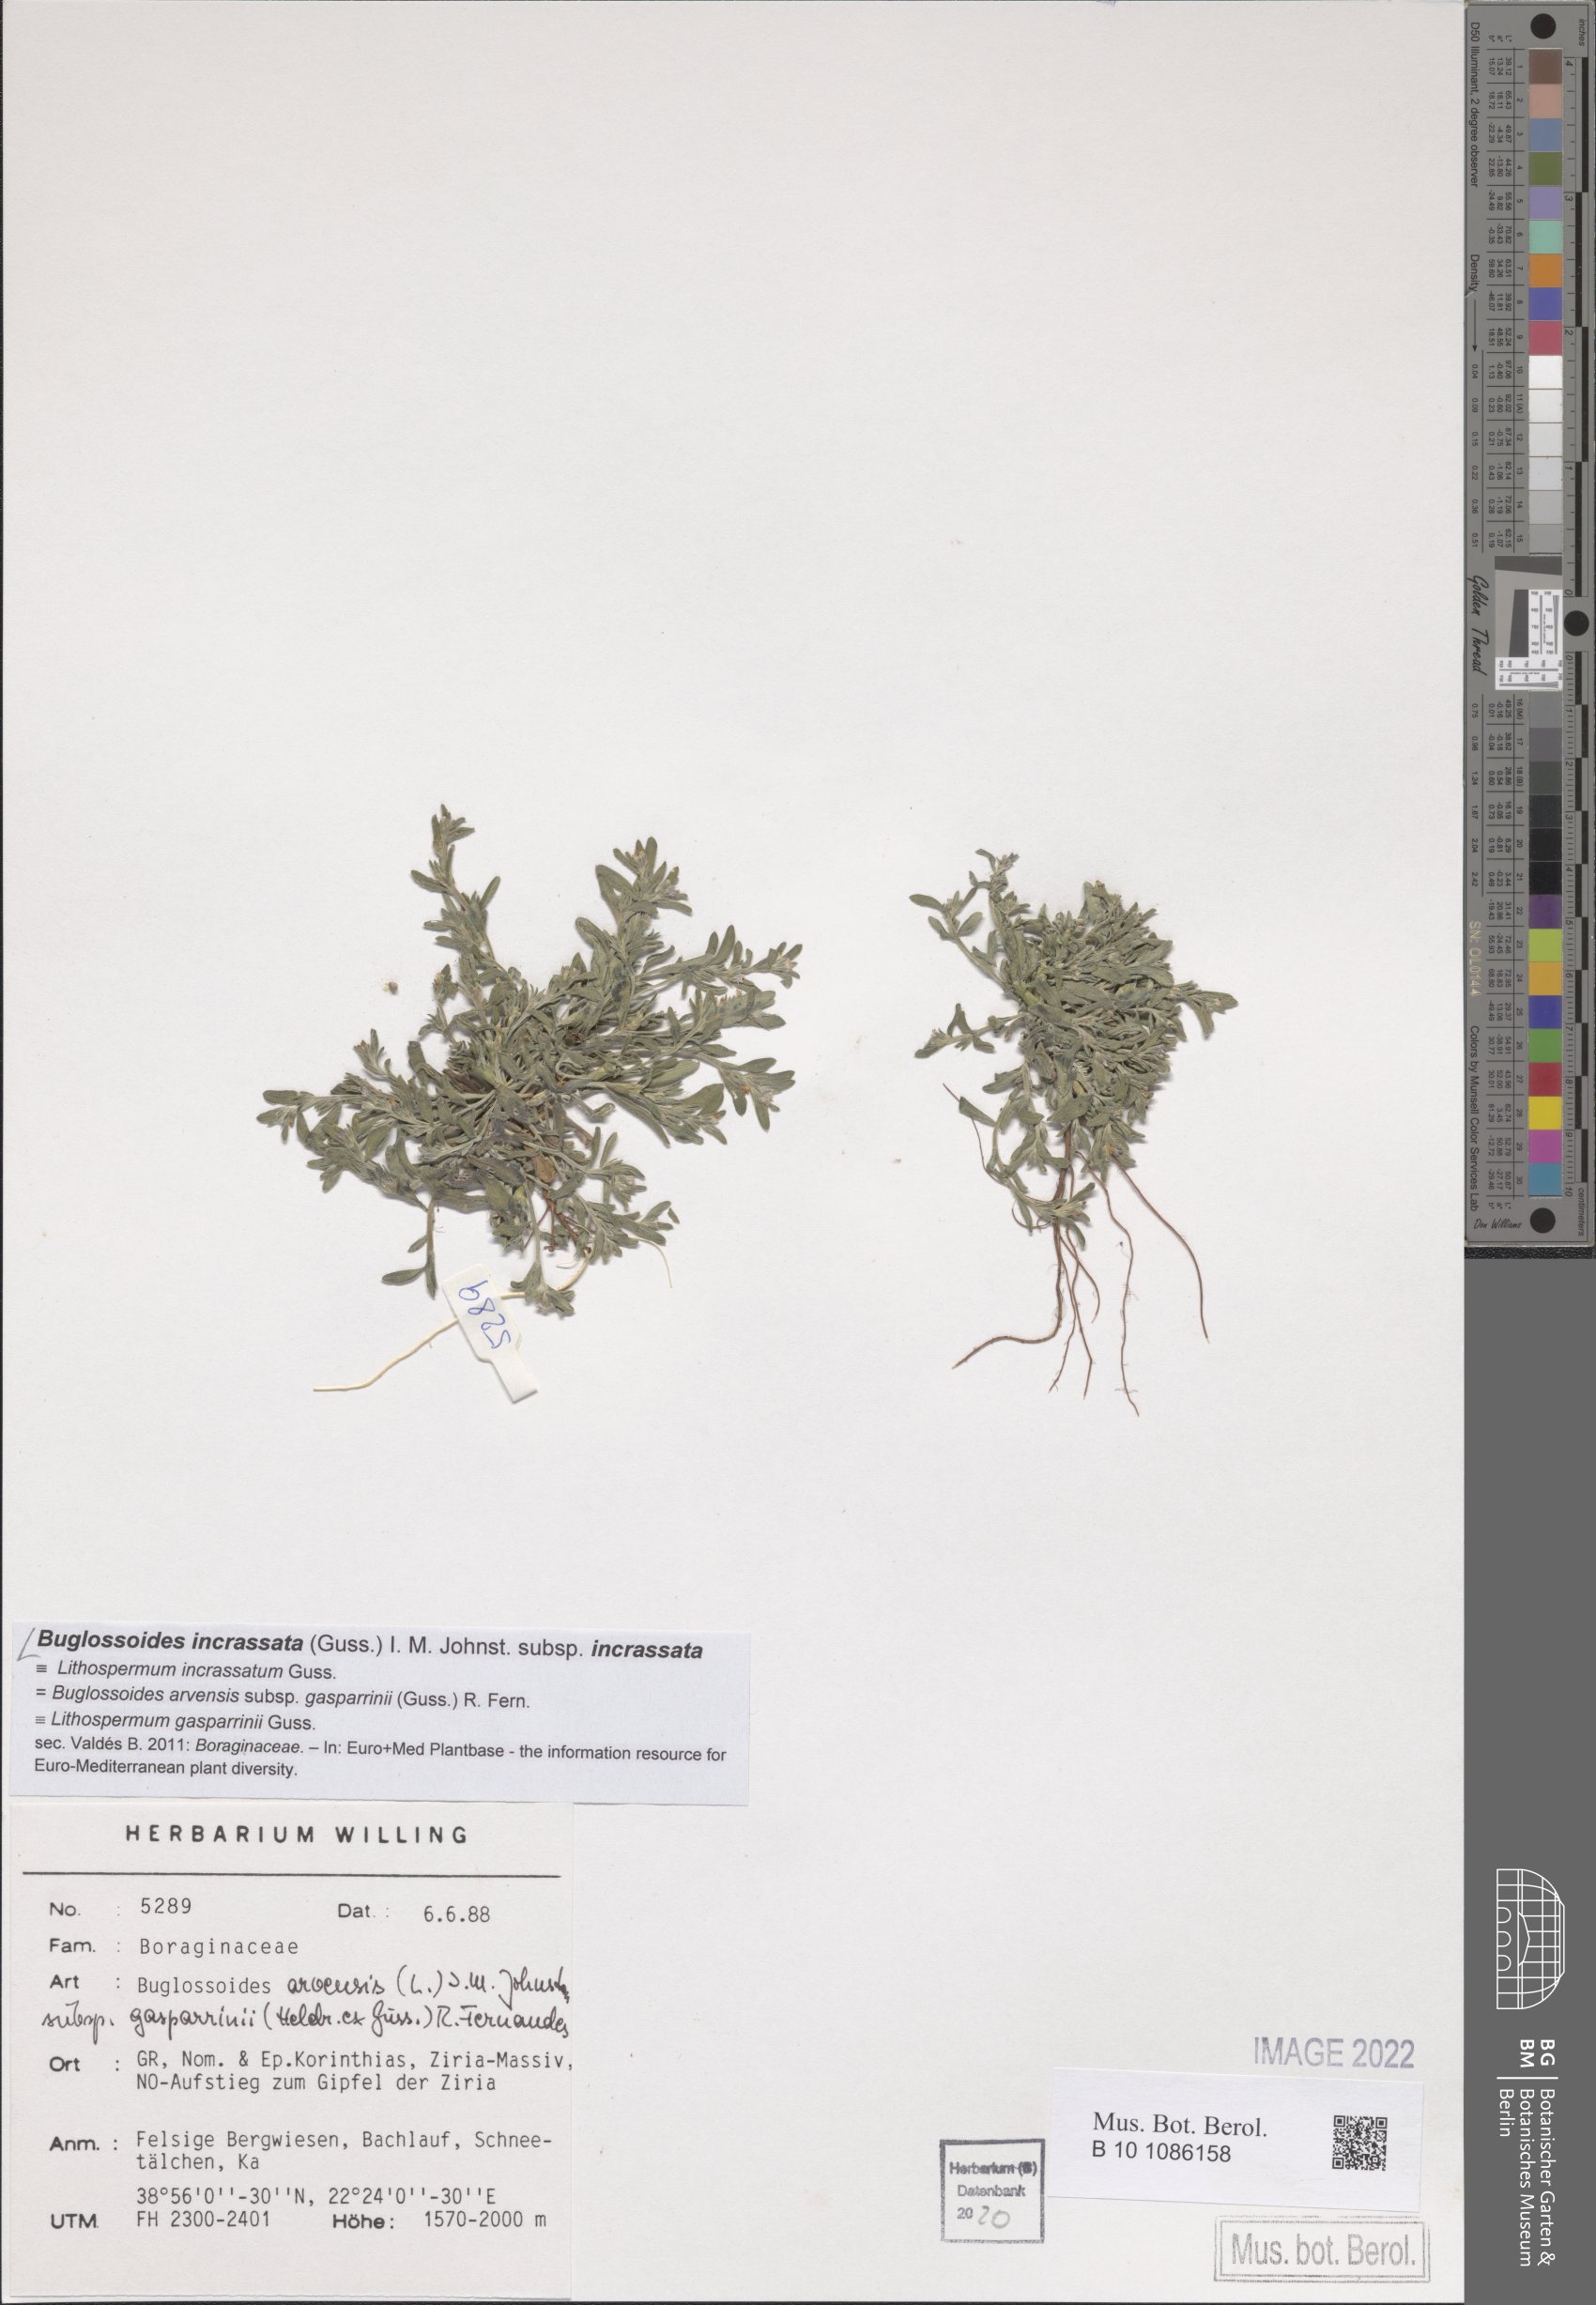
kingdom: Plantae
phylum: Tracheophyta
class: Magnoliopsida
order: Boraginales
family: Boraginaceae
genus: Buglossoides
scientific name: Buglossoides incrassata
